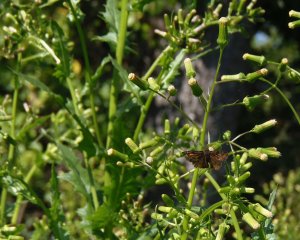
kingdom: Animalia
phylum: Arthropoda
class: Insecta
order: Lepidoptera
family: Hesperiidae
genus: Gesta
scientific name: Gesta
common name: Wild Indigo Duskywing
